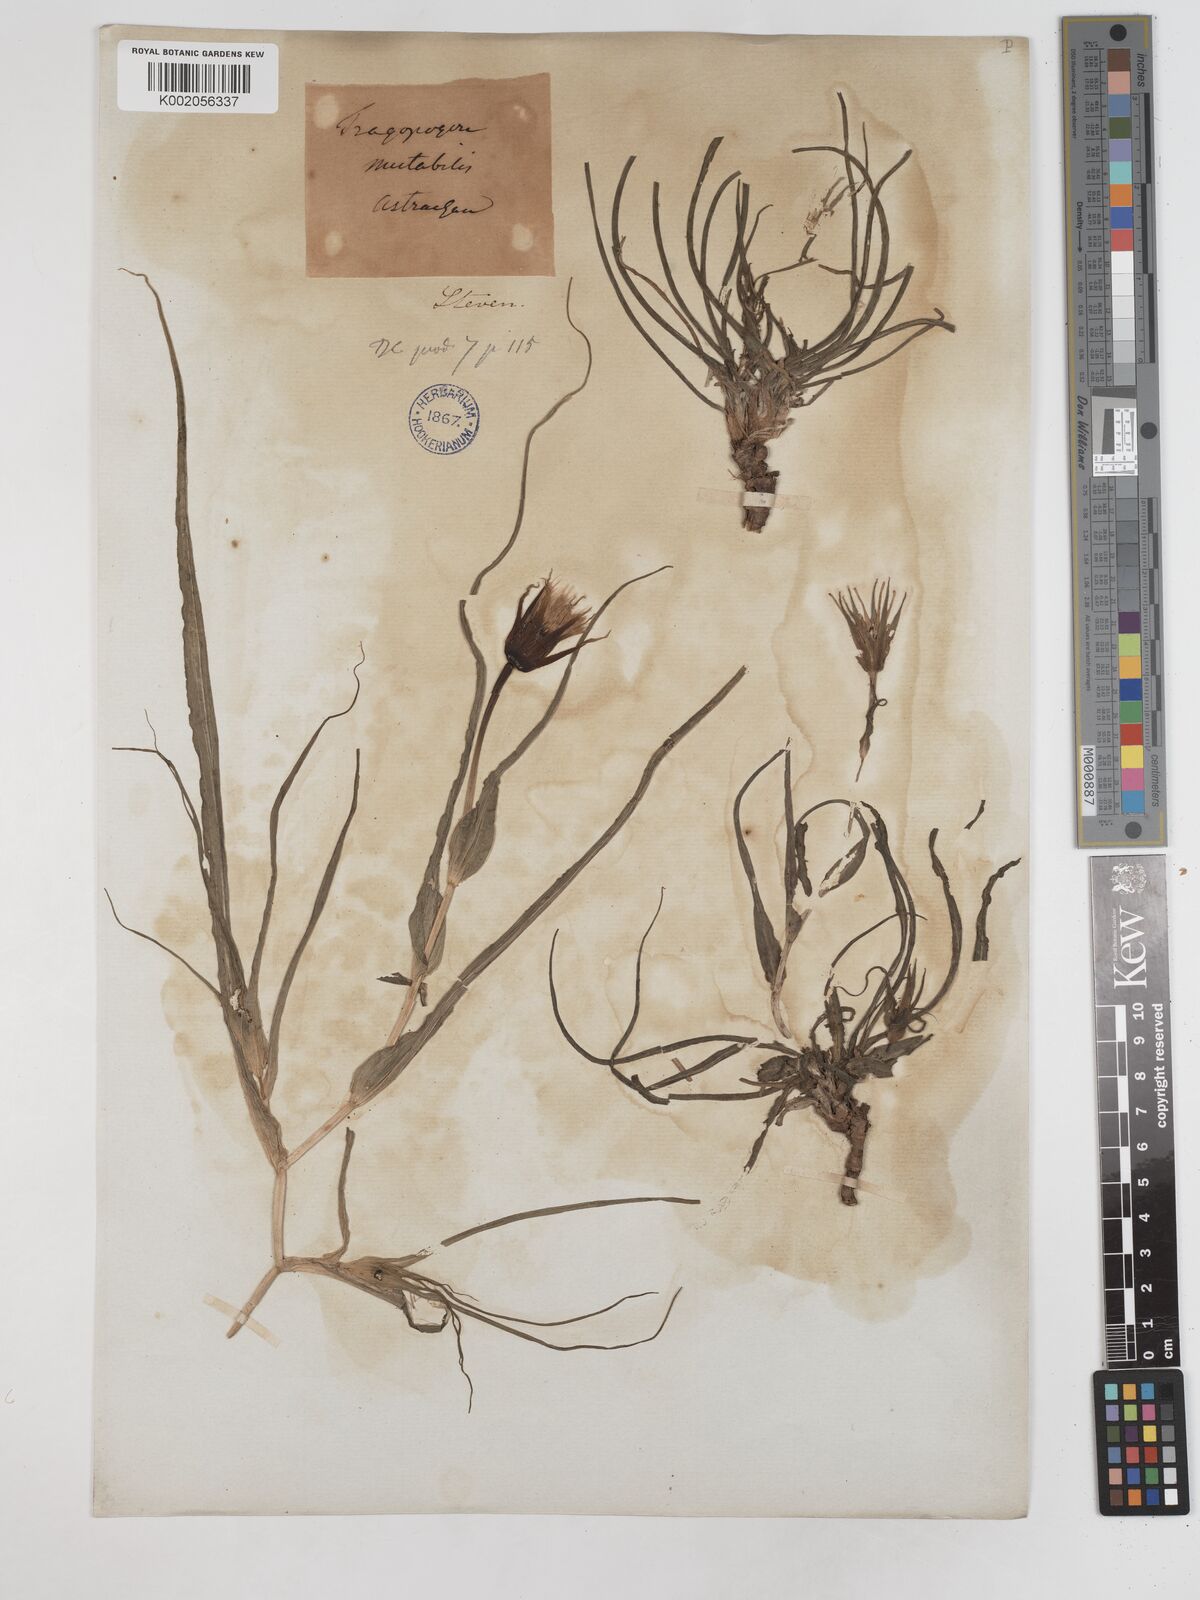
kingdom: Plantae
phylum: Tracheophyta
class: Magnoliopsida
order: Asterales
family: Asteraceae
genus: Tragopogon
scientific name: Tragopogon collinus
